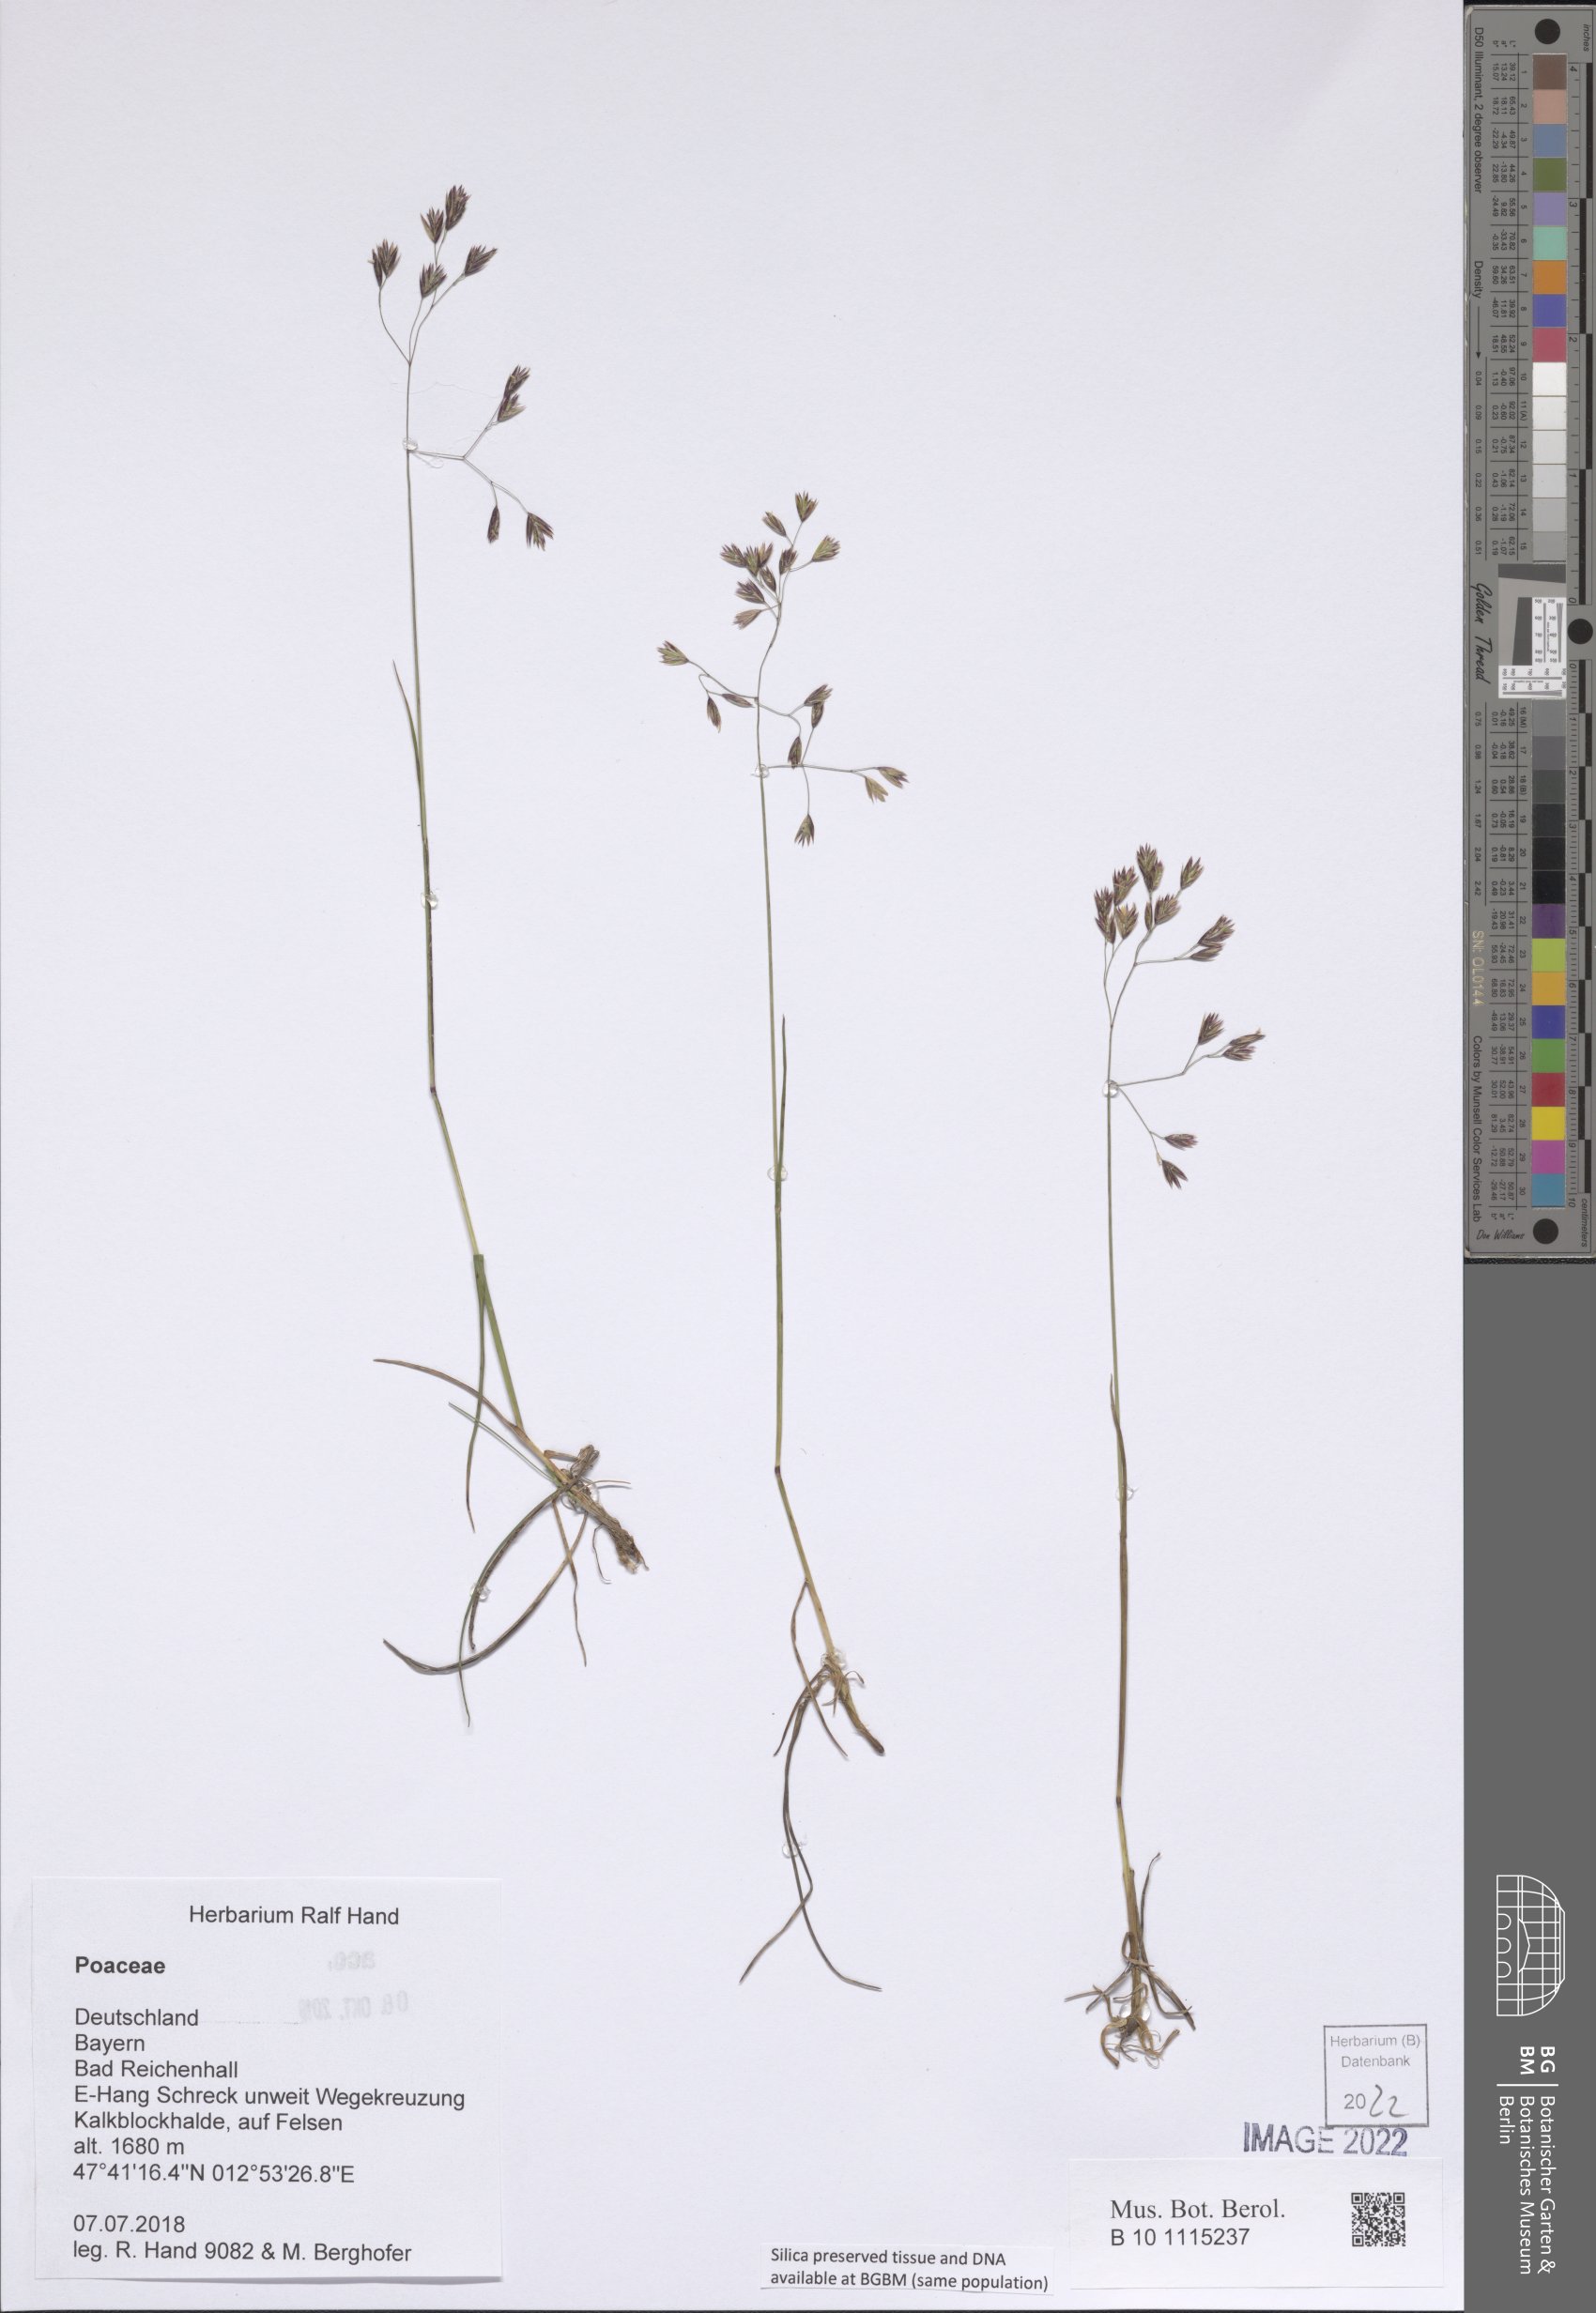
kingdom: Plantae
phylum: Tracheophyta
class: Liliopsida
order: Poales
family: Poaceae
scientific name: Poaceae
